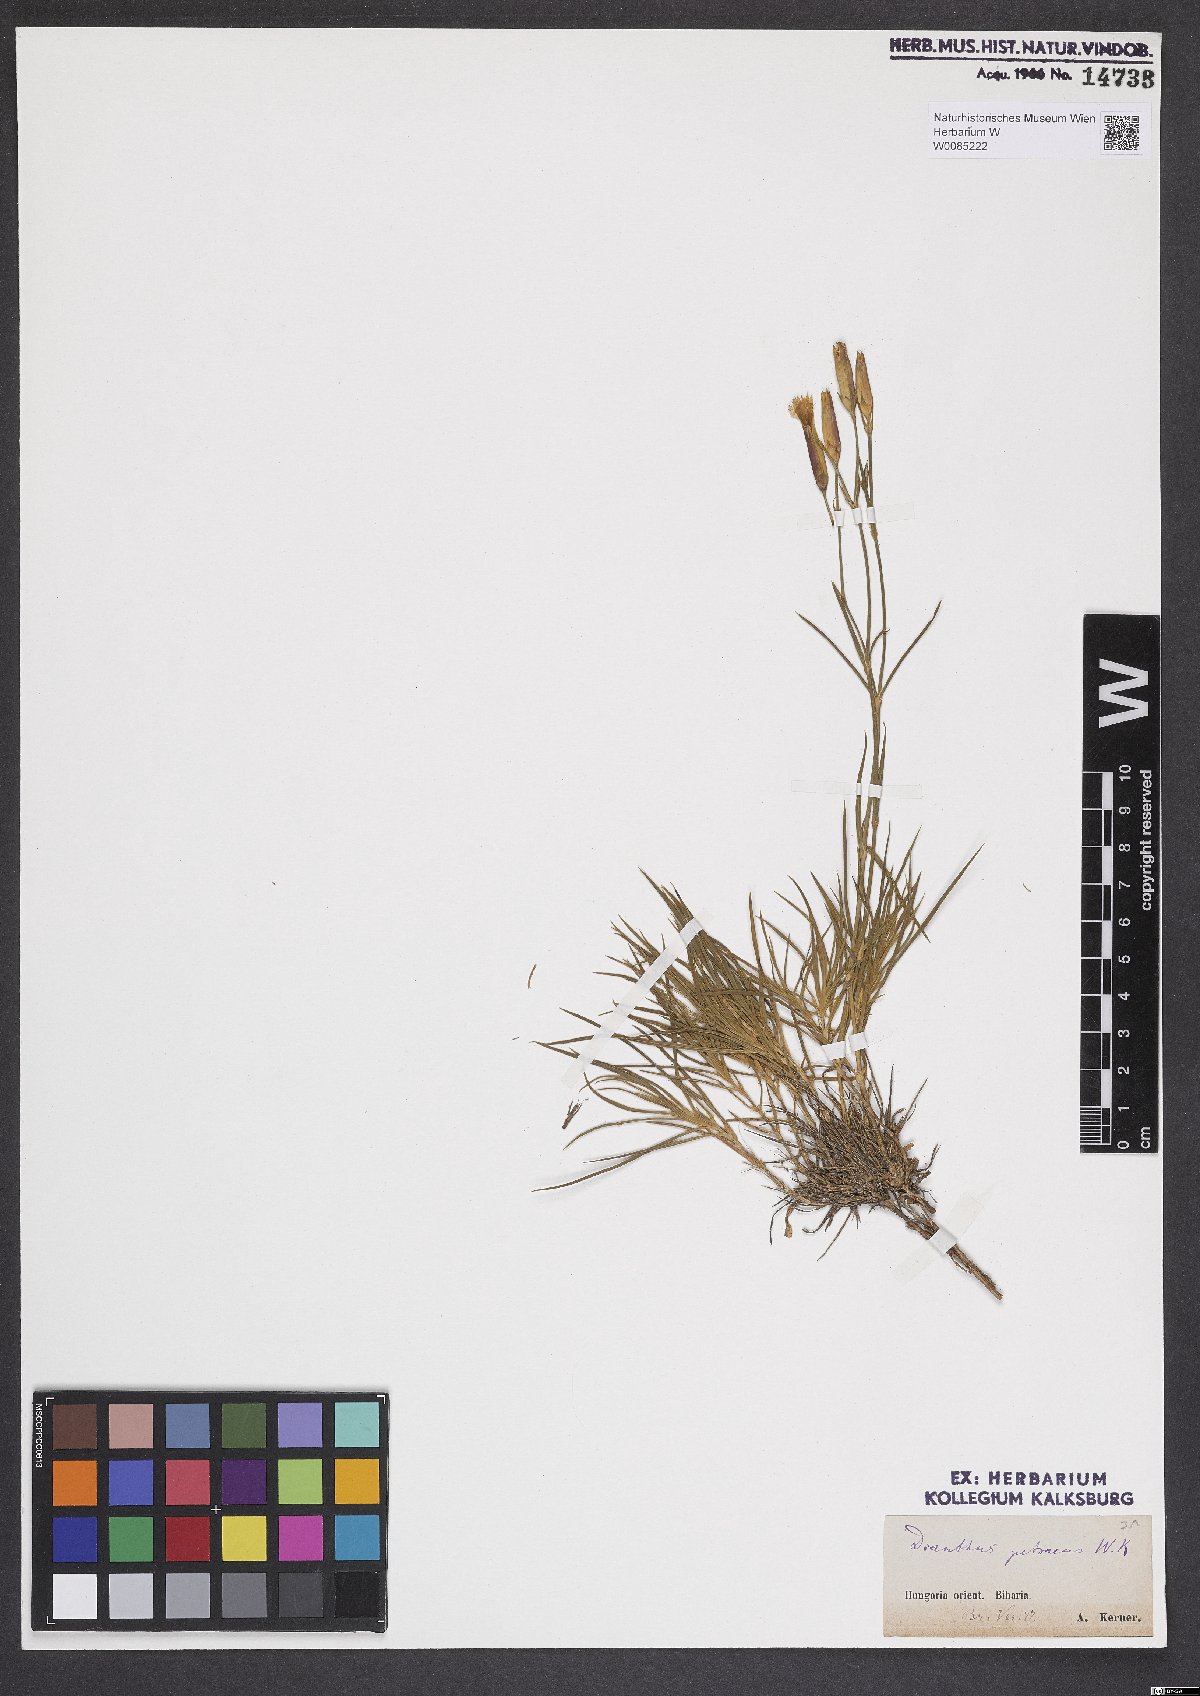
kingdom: Plantae
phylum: Tracheophyta
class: Magnoliopsida
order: Caryophyllales
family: Caryophyllaceae
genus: Dianthus
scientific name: Dianthus petraeus
